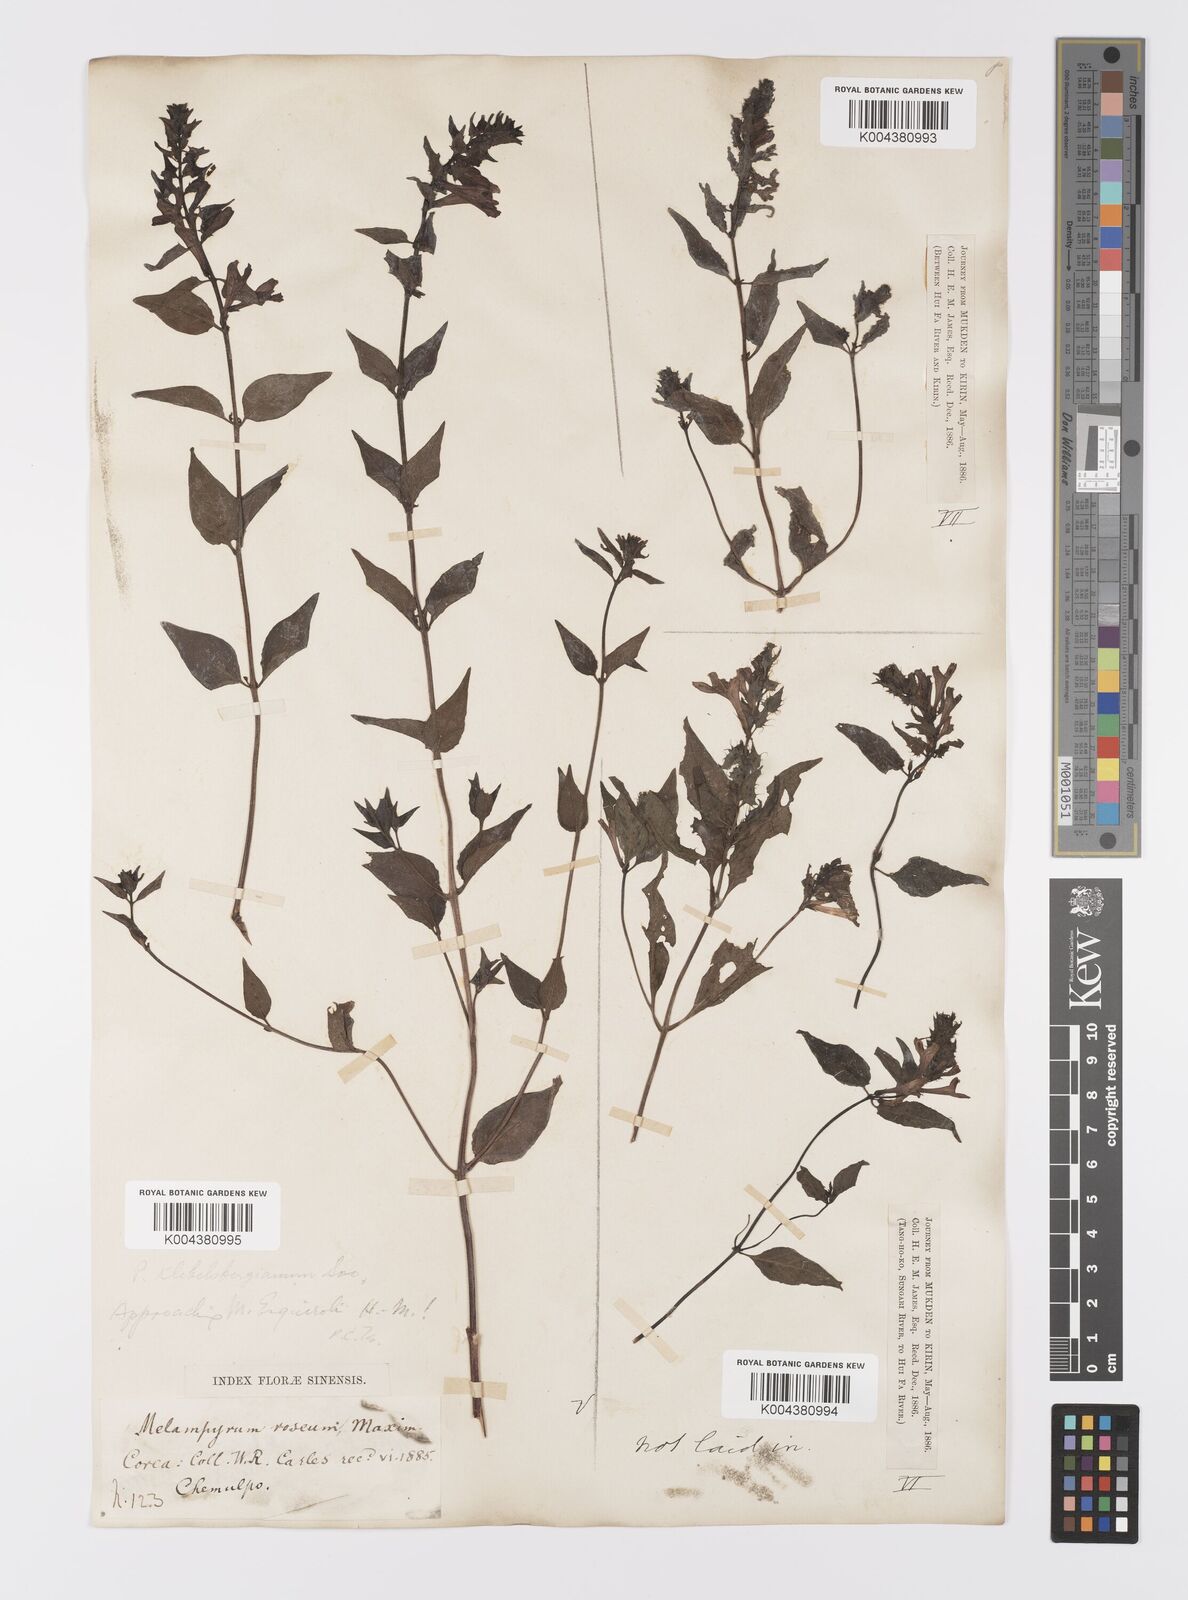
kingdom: Plantae
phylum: Tracheophyta
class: Magnoliopsida
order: Lamiales
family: Orobanchaceae
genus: Melampyrum
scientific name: Melampyrum roseum
